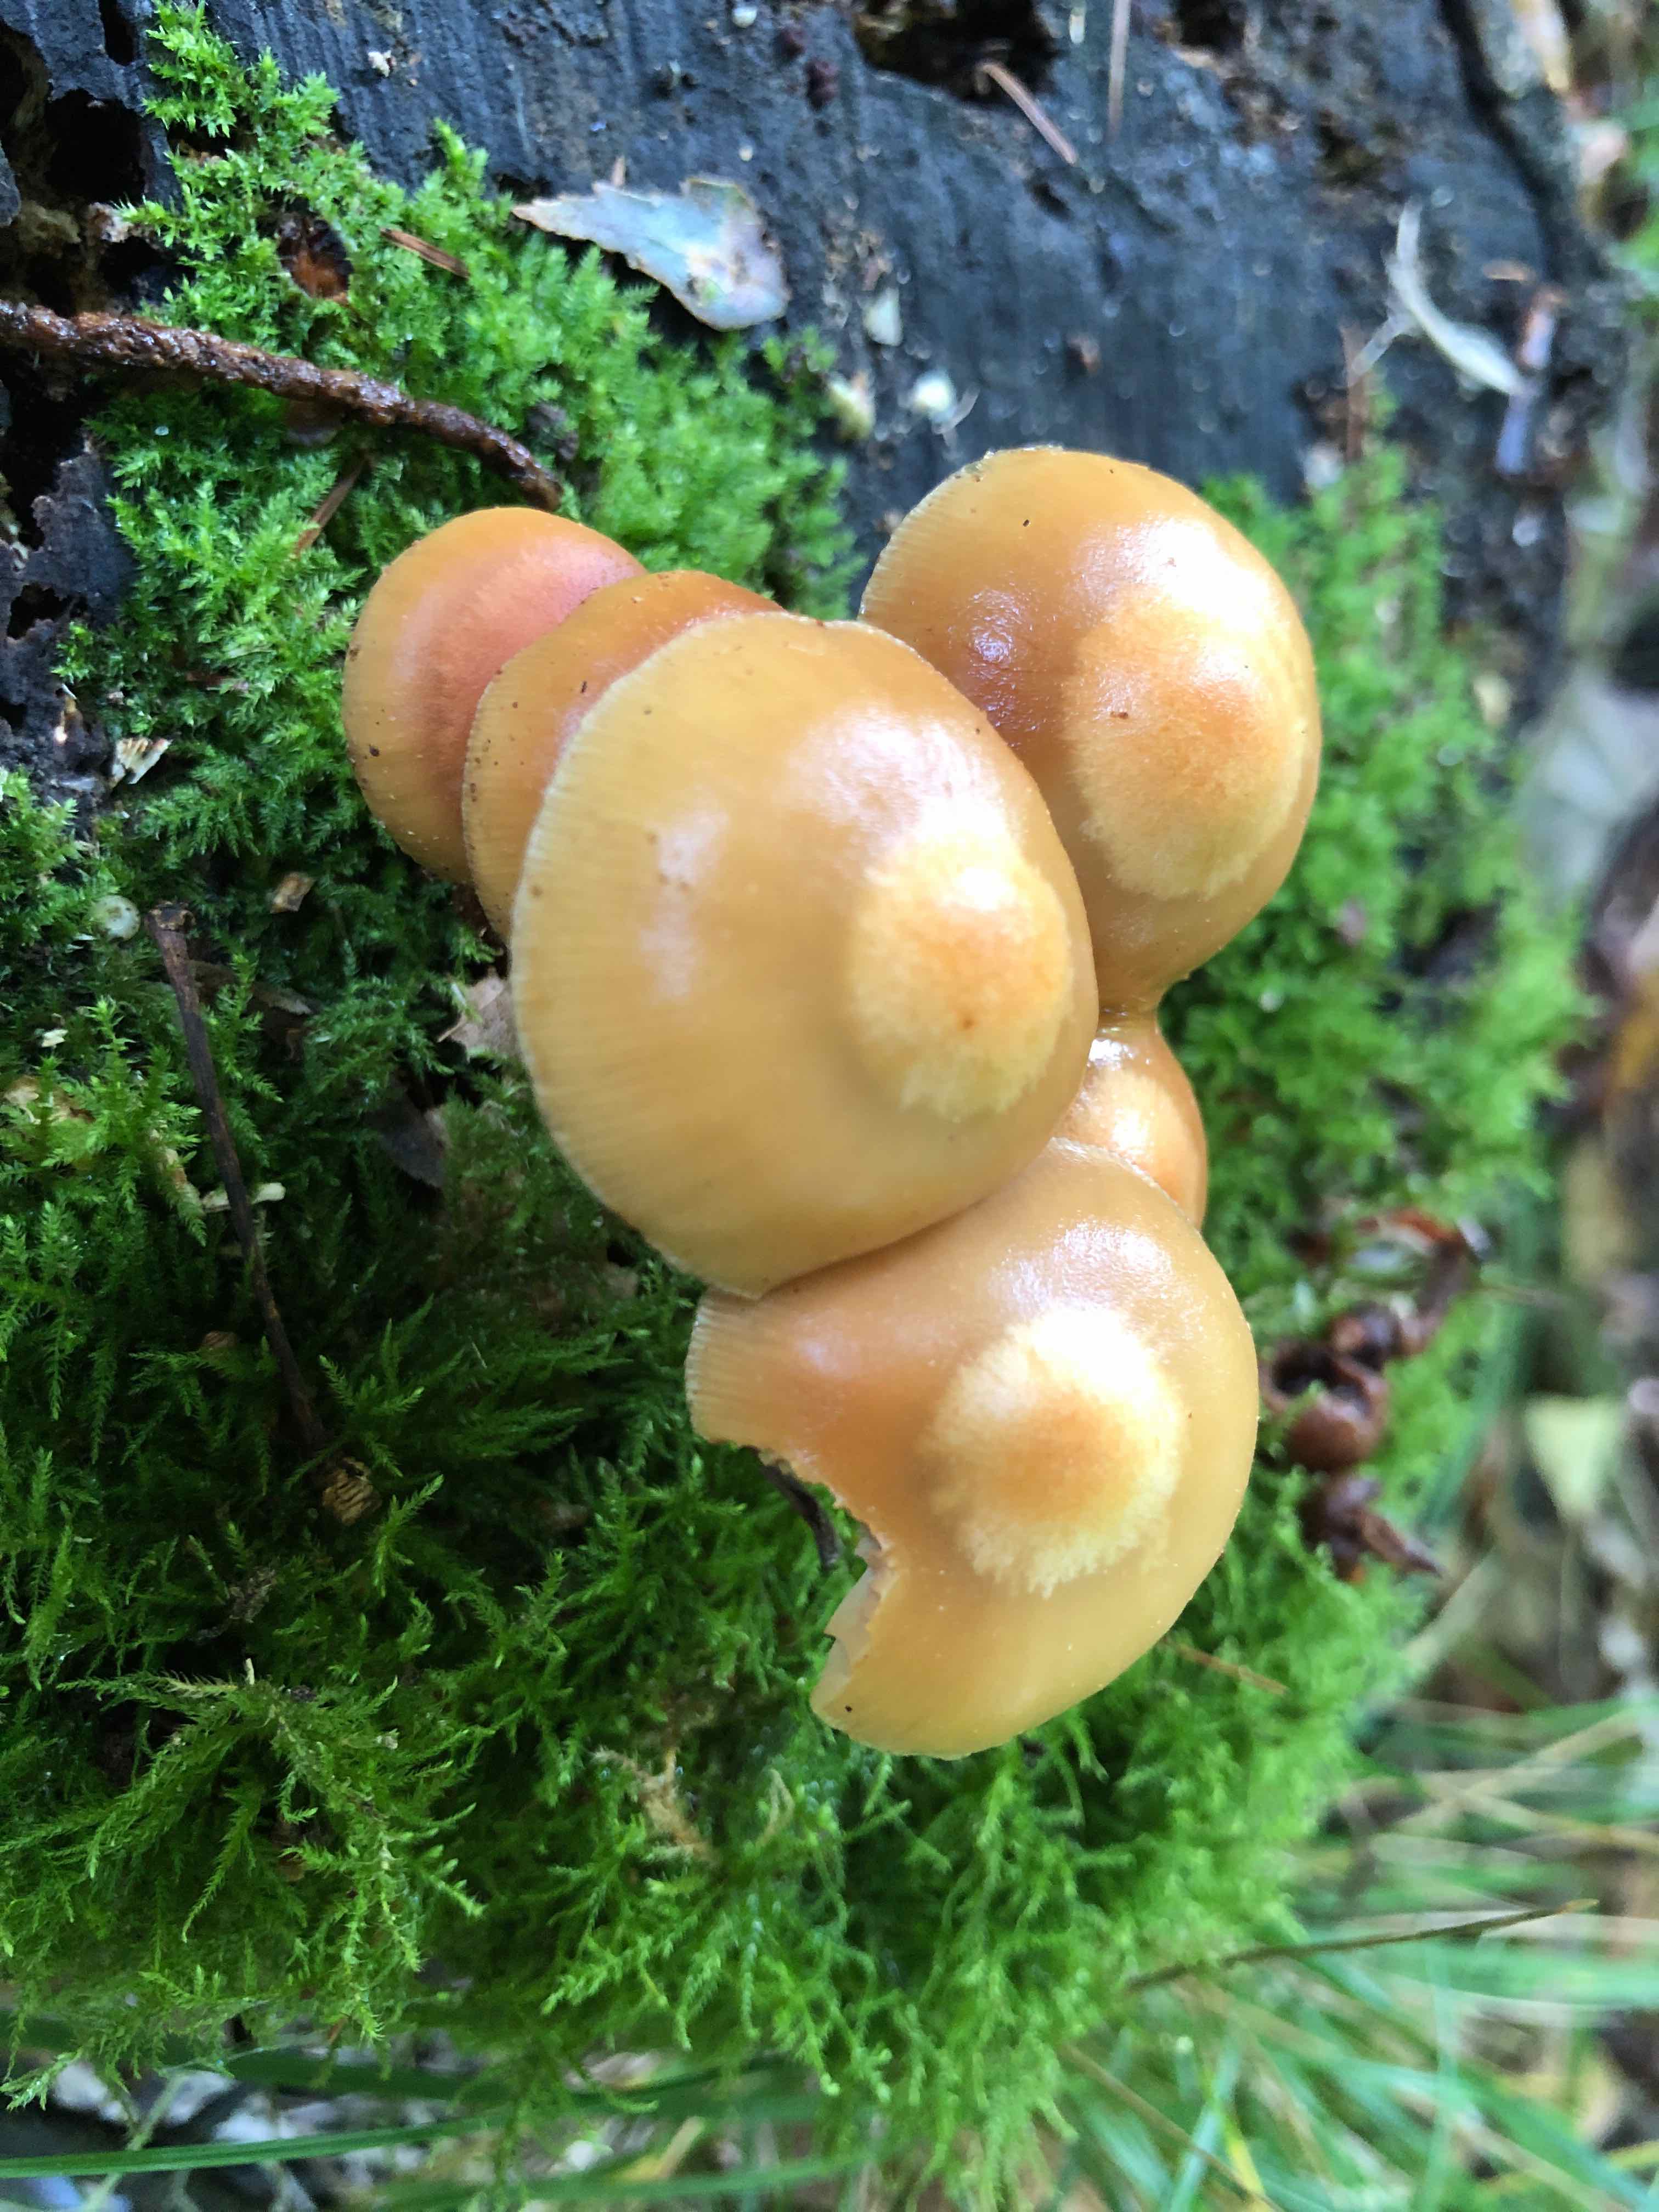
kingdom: Fungi
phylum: Basidiomycota
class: Agaricomycetes
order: Agaricales
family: Strophariaceae
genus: Kuehneromyces
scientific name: Kuehneromyces mutabilis
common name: foranderlig skælhat
